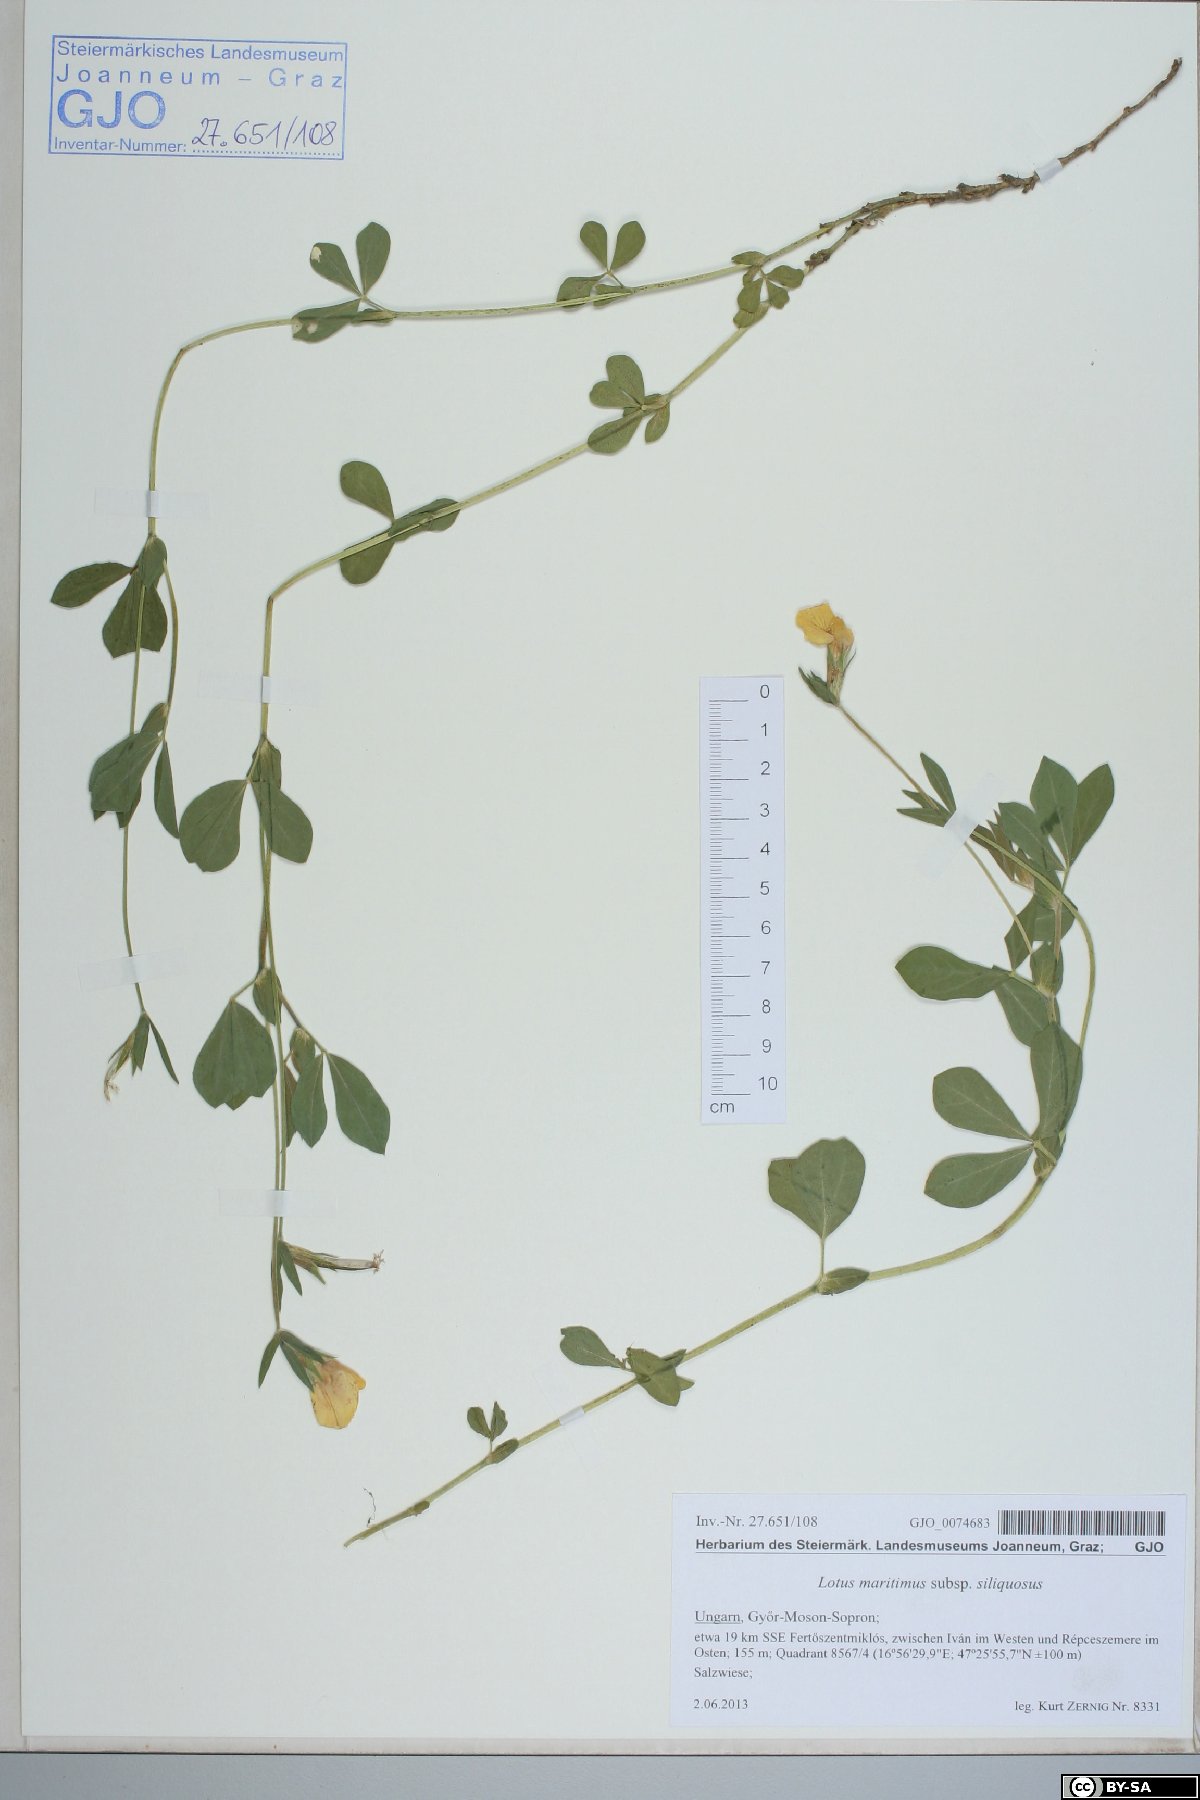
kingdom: Plantae
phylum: Tracheophyta
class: Magnoliopsida
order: Fabales
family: Fabaceae
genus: Lathyrus
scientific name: Lathyrus inconspicuus
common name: Inconspicuous pea
